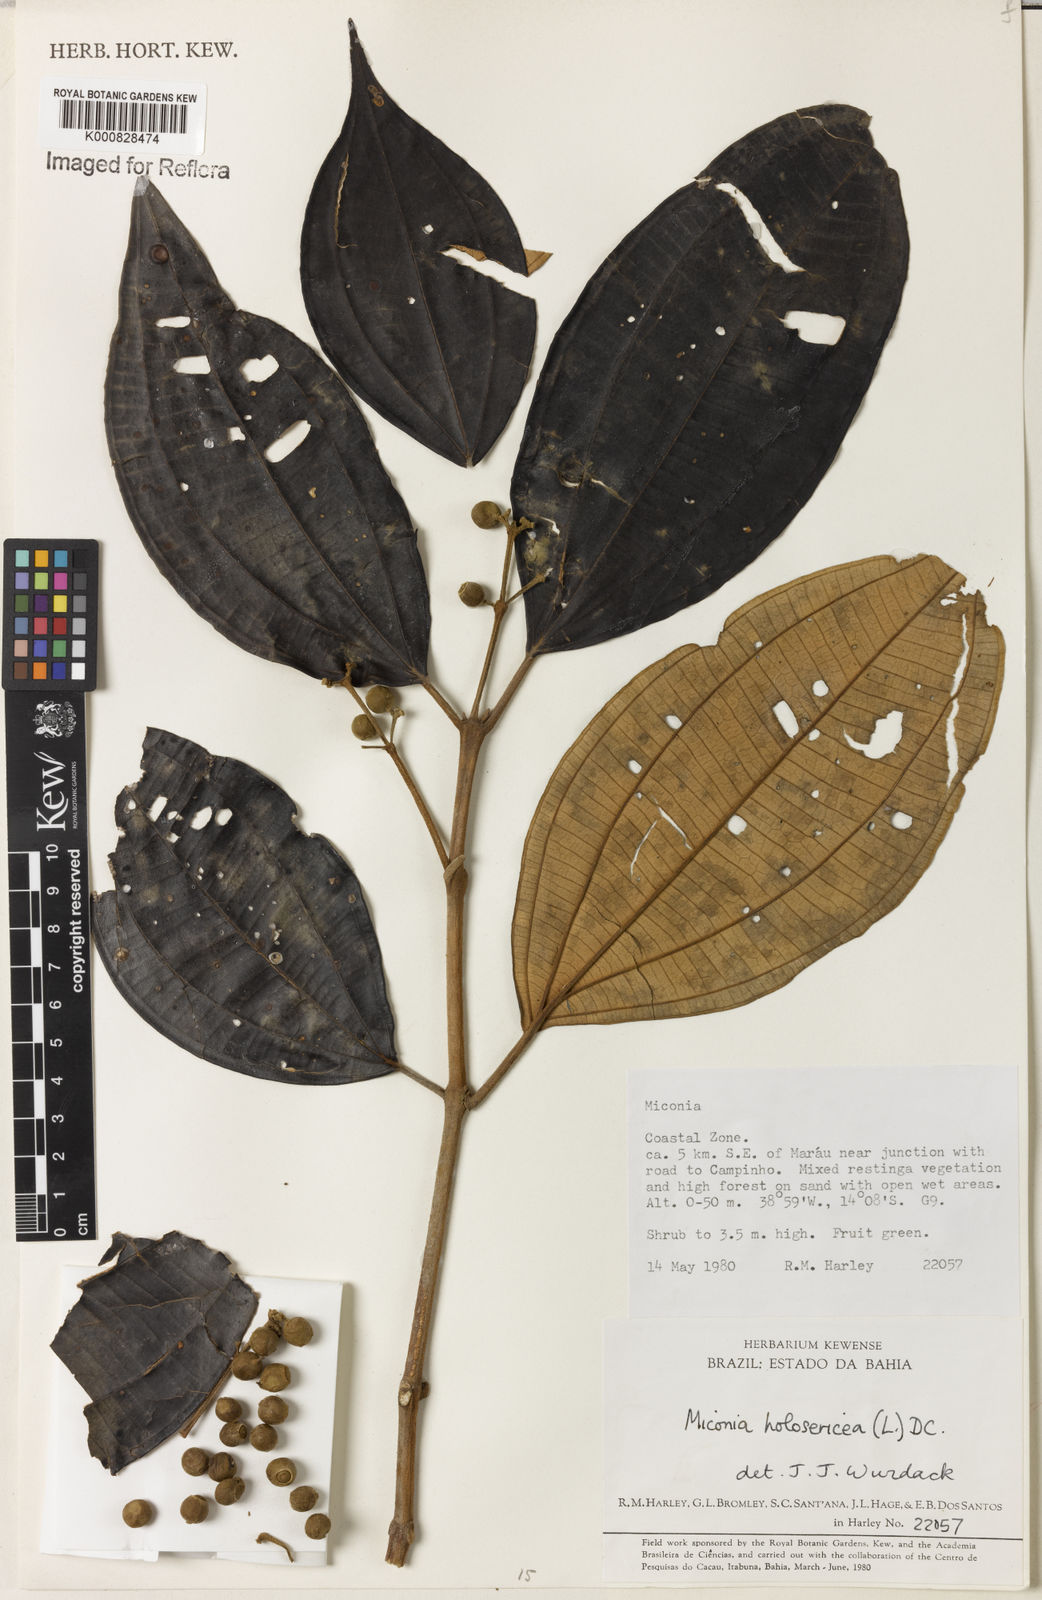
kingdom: Plantae
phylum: Tracheophyta
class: Magnoliopsida
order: Myrtales
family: Melastomataceae
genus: Miconia
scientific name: Miconia holosericea
